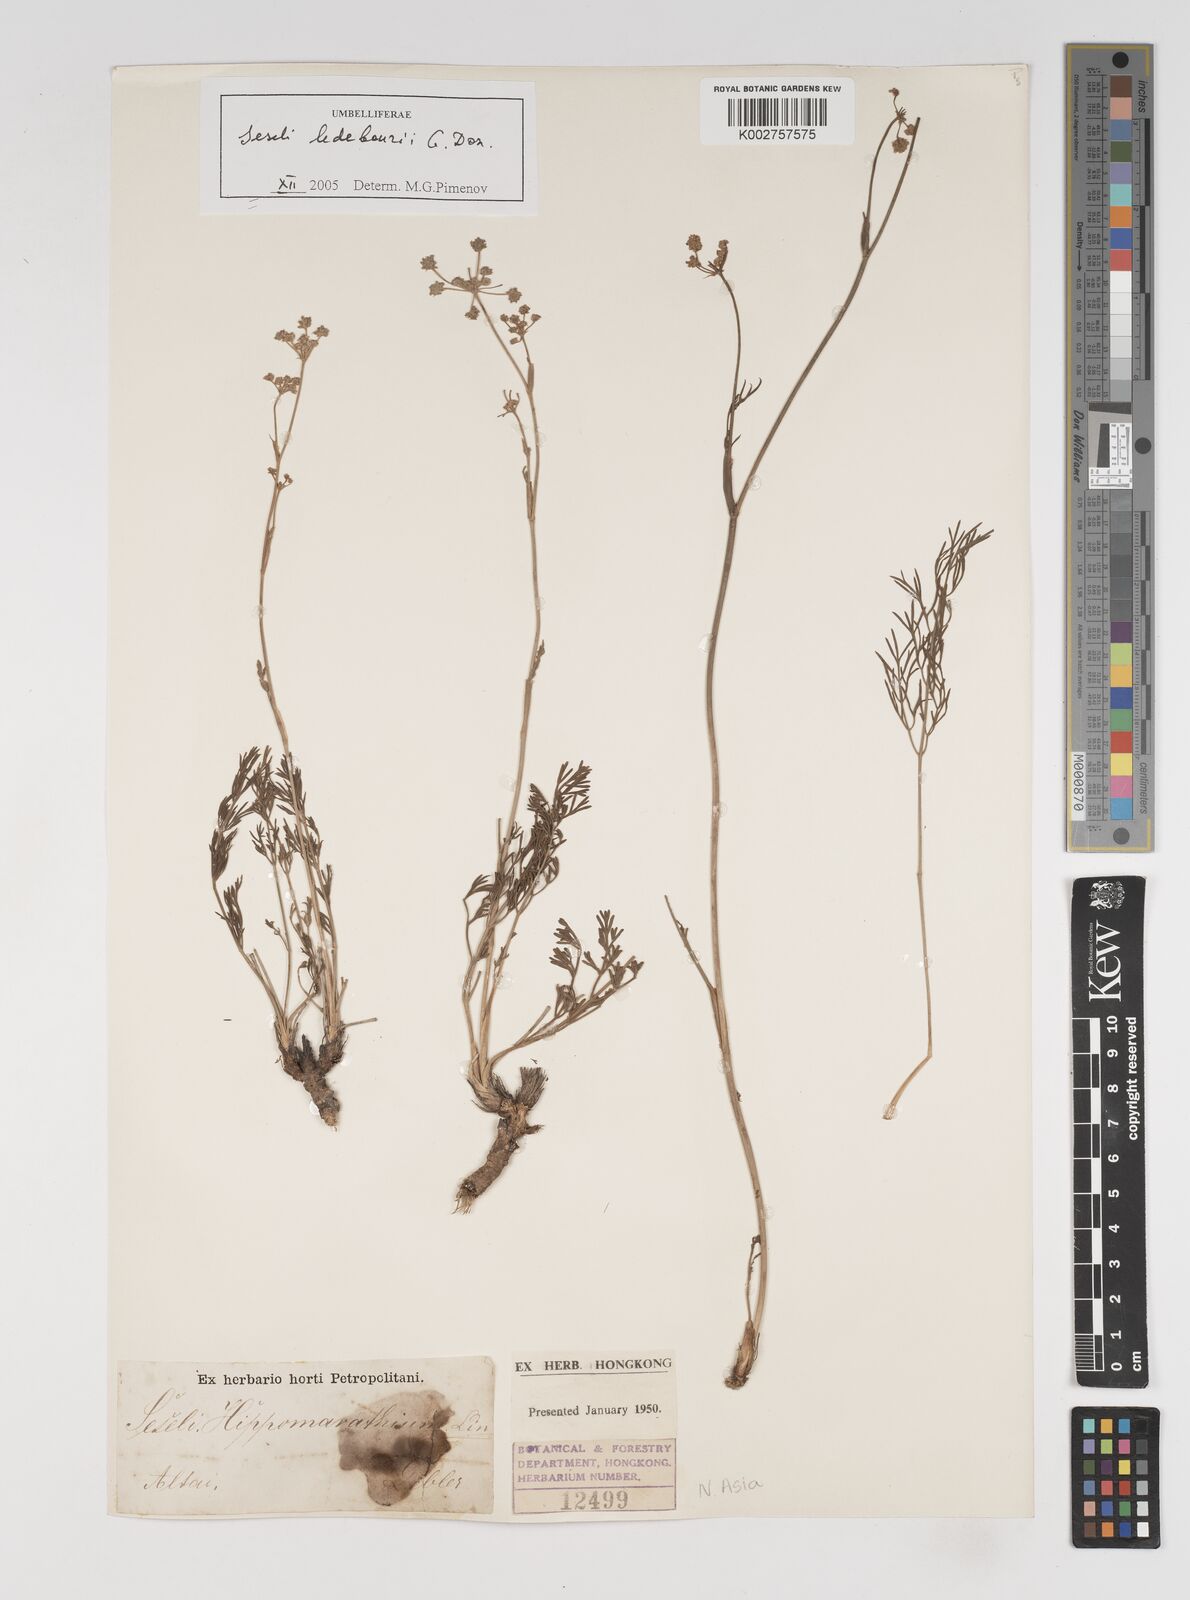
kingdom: Plantae
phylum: Tracheophyta
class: Magnoliopsida
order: Apiales
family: Apiaceae
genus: Hippomarathrum
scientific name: Hippomarathrum ledebourii
